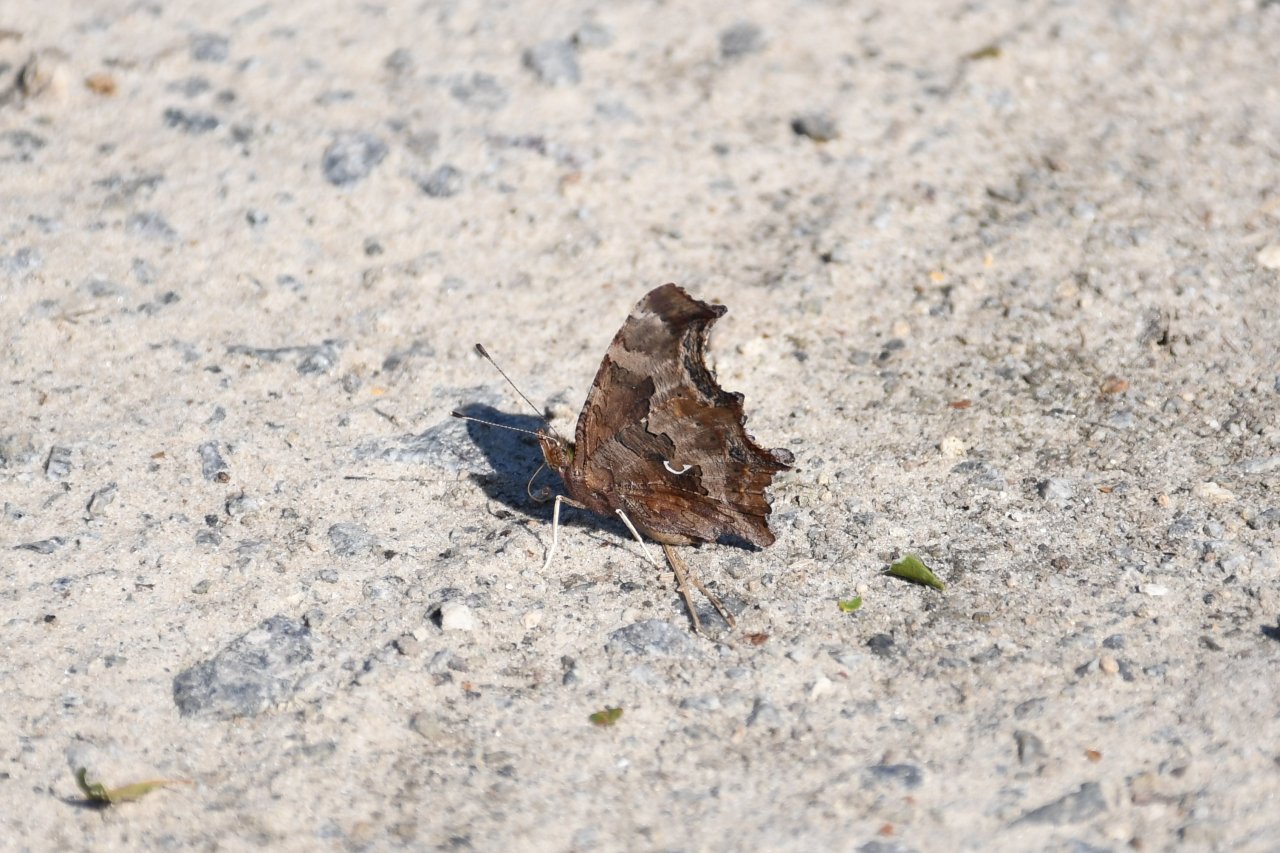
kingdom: Animalia
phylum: Arthropoda
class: Insecta
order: Lepidoptera
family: Nymphalidae
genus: Polygonia
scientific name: Polygonia comma
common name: Eastern Comma
